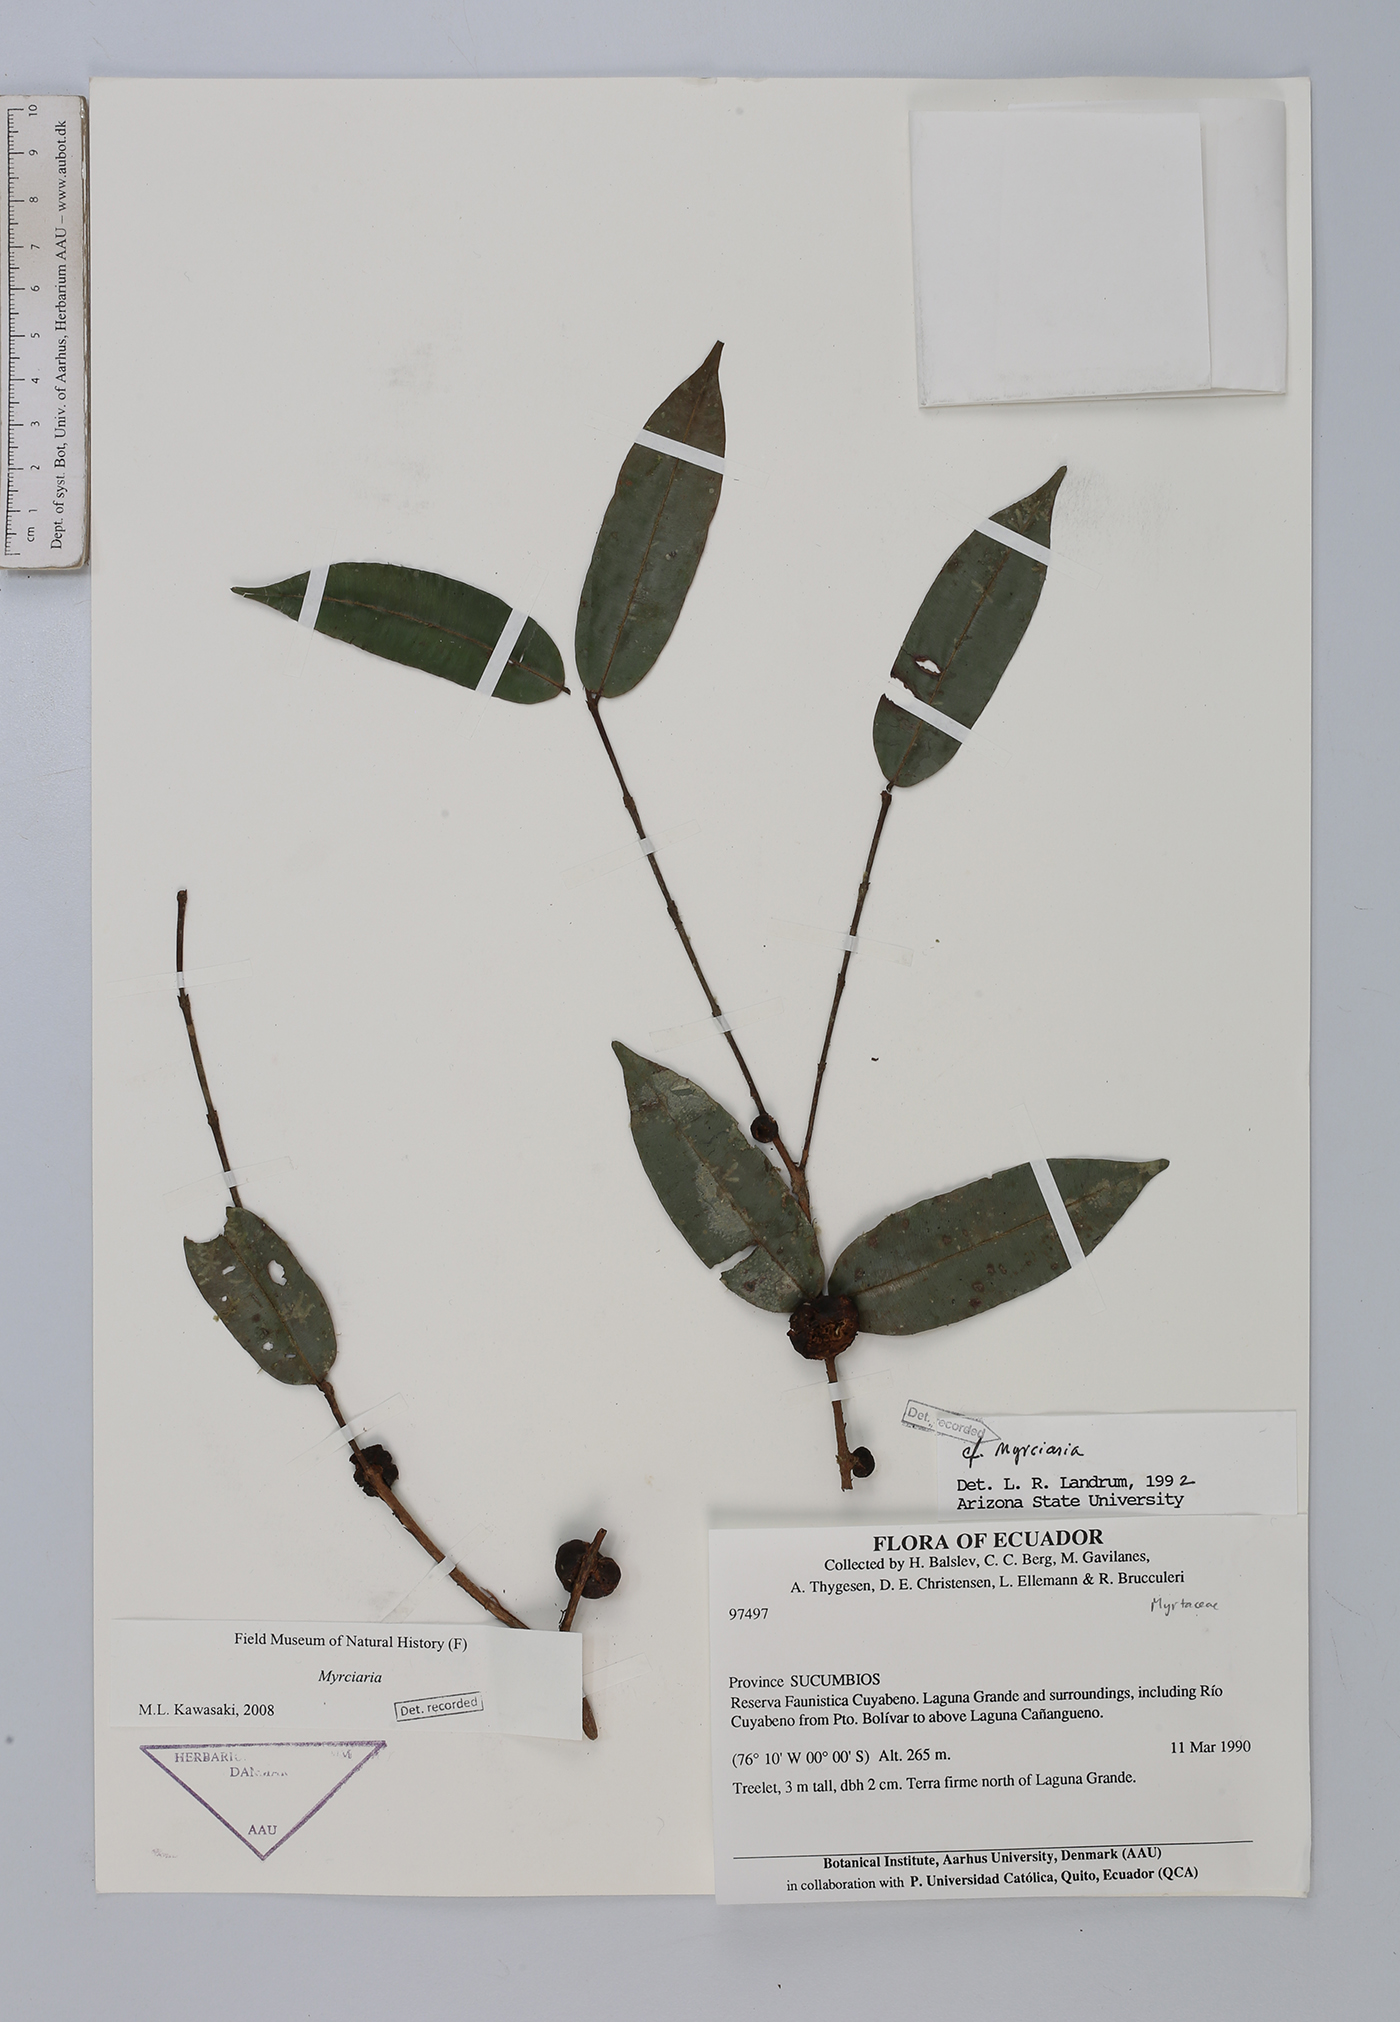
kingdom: Plantae
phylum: Tracheophyta
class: Magnoliopsida
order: Myrtales
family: Myrtaceae
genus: Myrciaria
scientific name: Myrciaria
